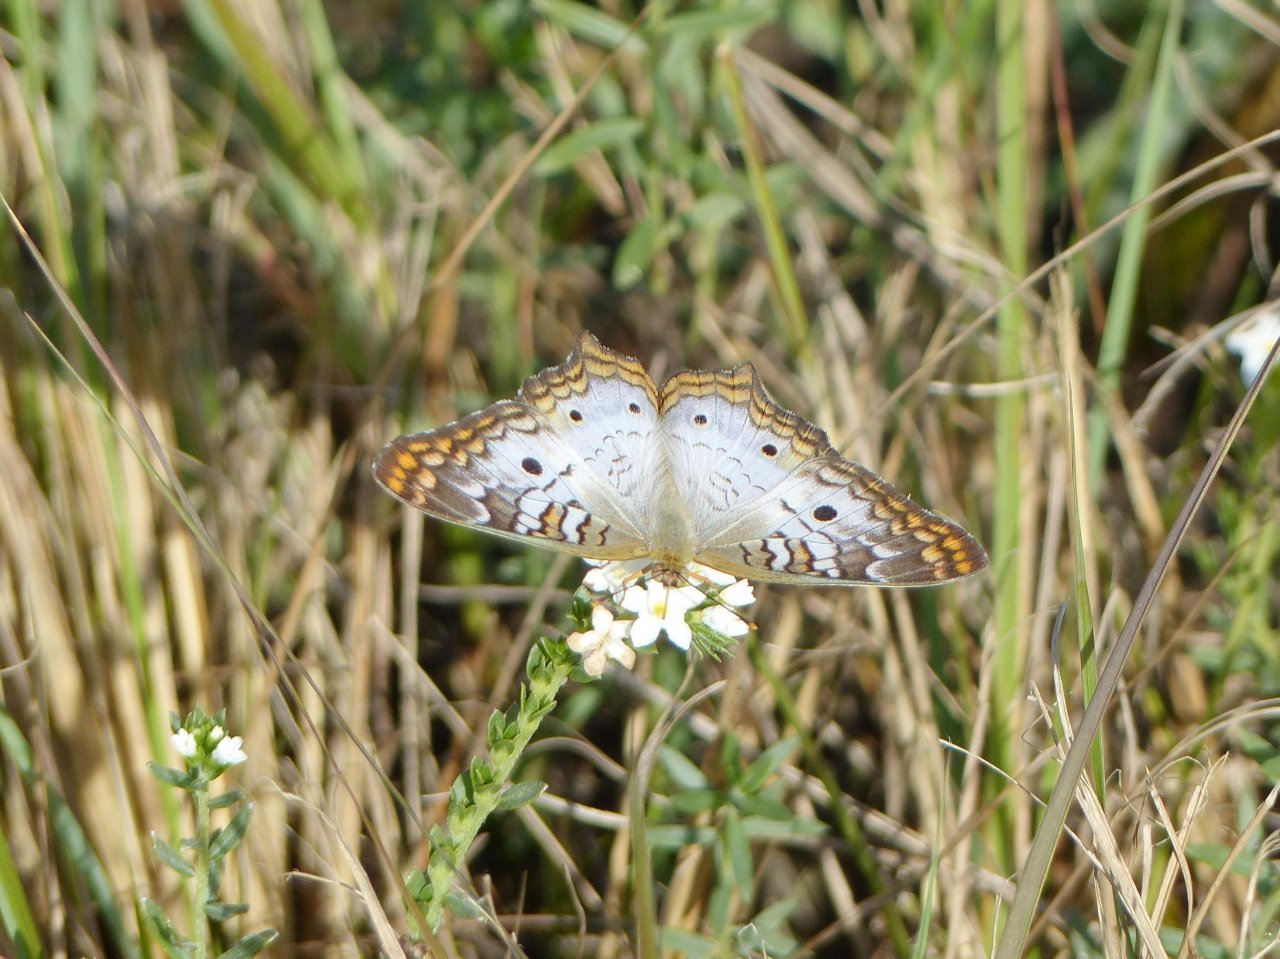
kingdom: Animalia
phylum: Arthropoda
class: Insecta
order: Lepidoptera
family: Nymphalidae
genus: Anartia
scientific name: Anartia jatrophae
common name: White Peacock
